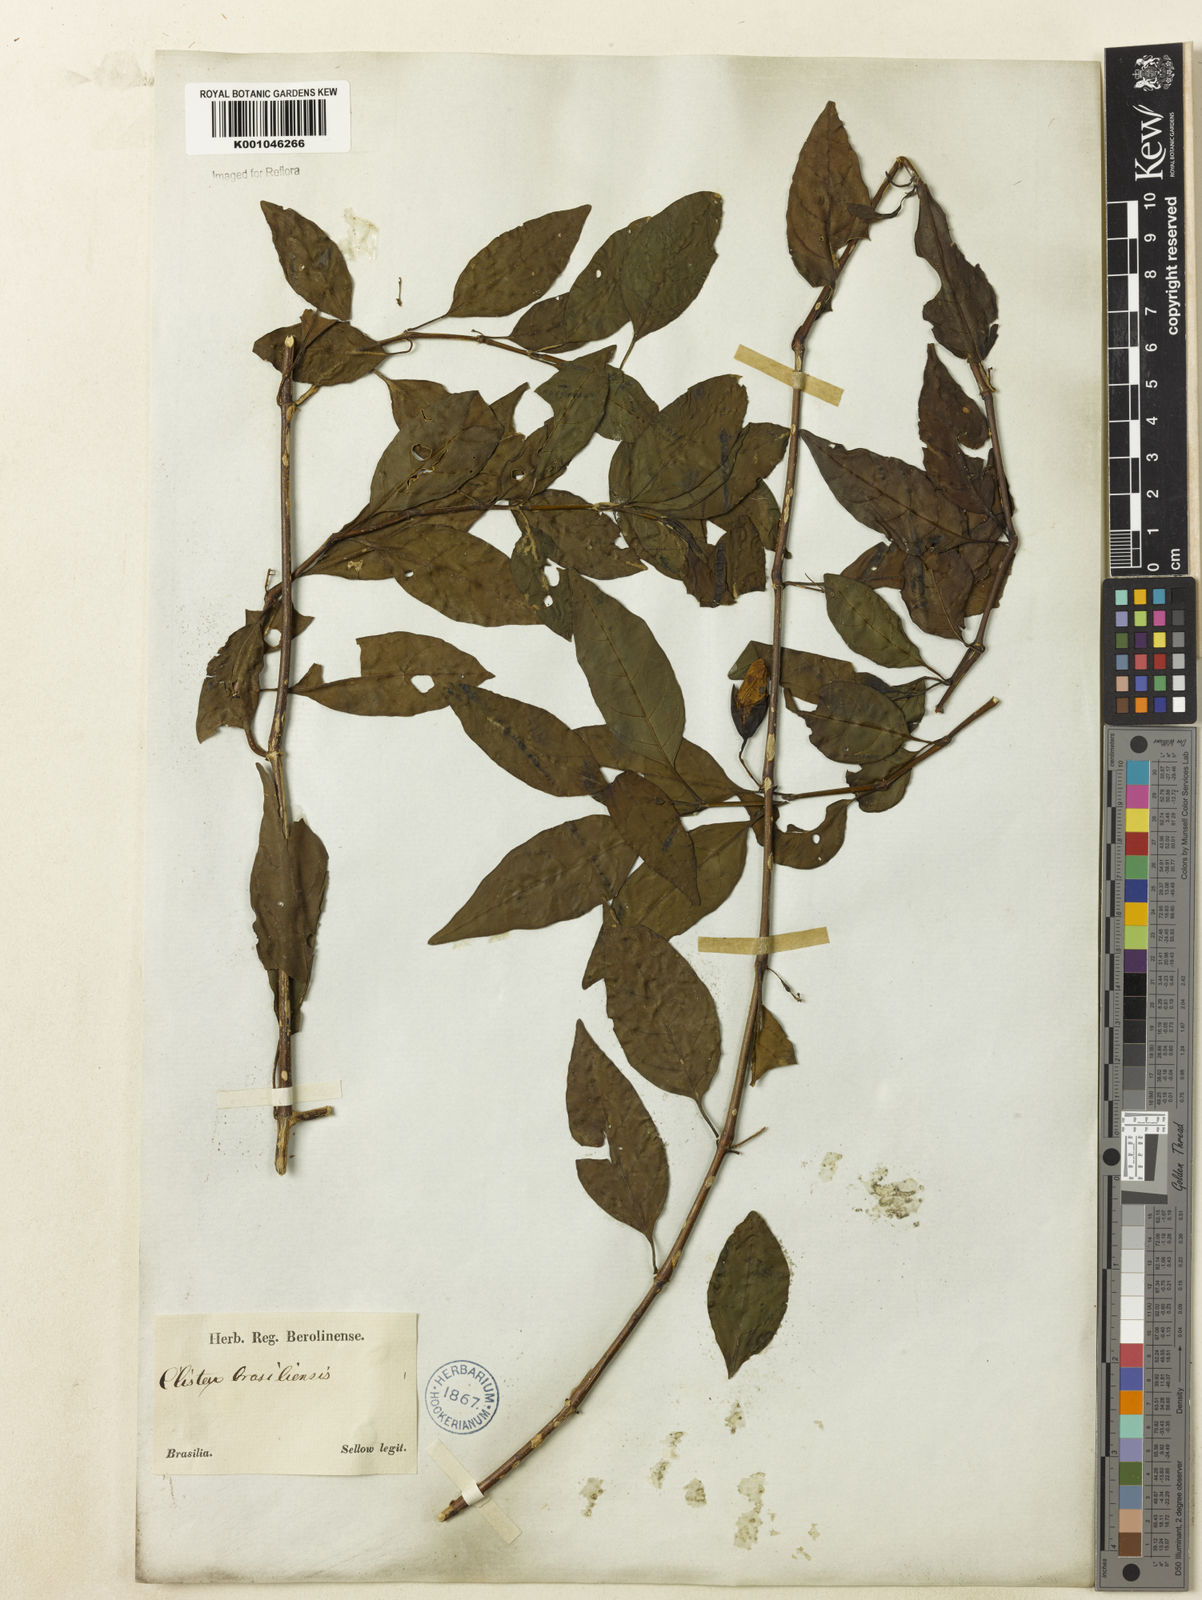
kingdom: Plantae
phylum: Tracheophyta
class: Magnoliopsida
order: Lamiales
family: Acanthaceae
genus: Clistax
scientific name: Clistax brasiliensis
